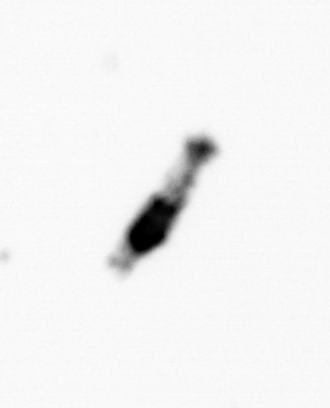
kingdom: Animalia
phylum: Arthropoda
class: Copepoda
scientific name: Copepoda
